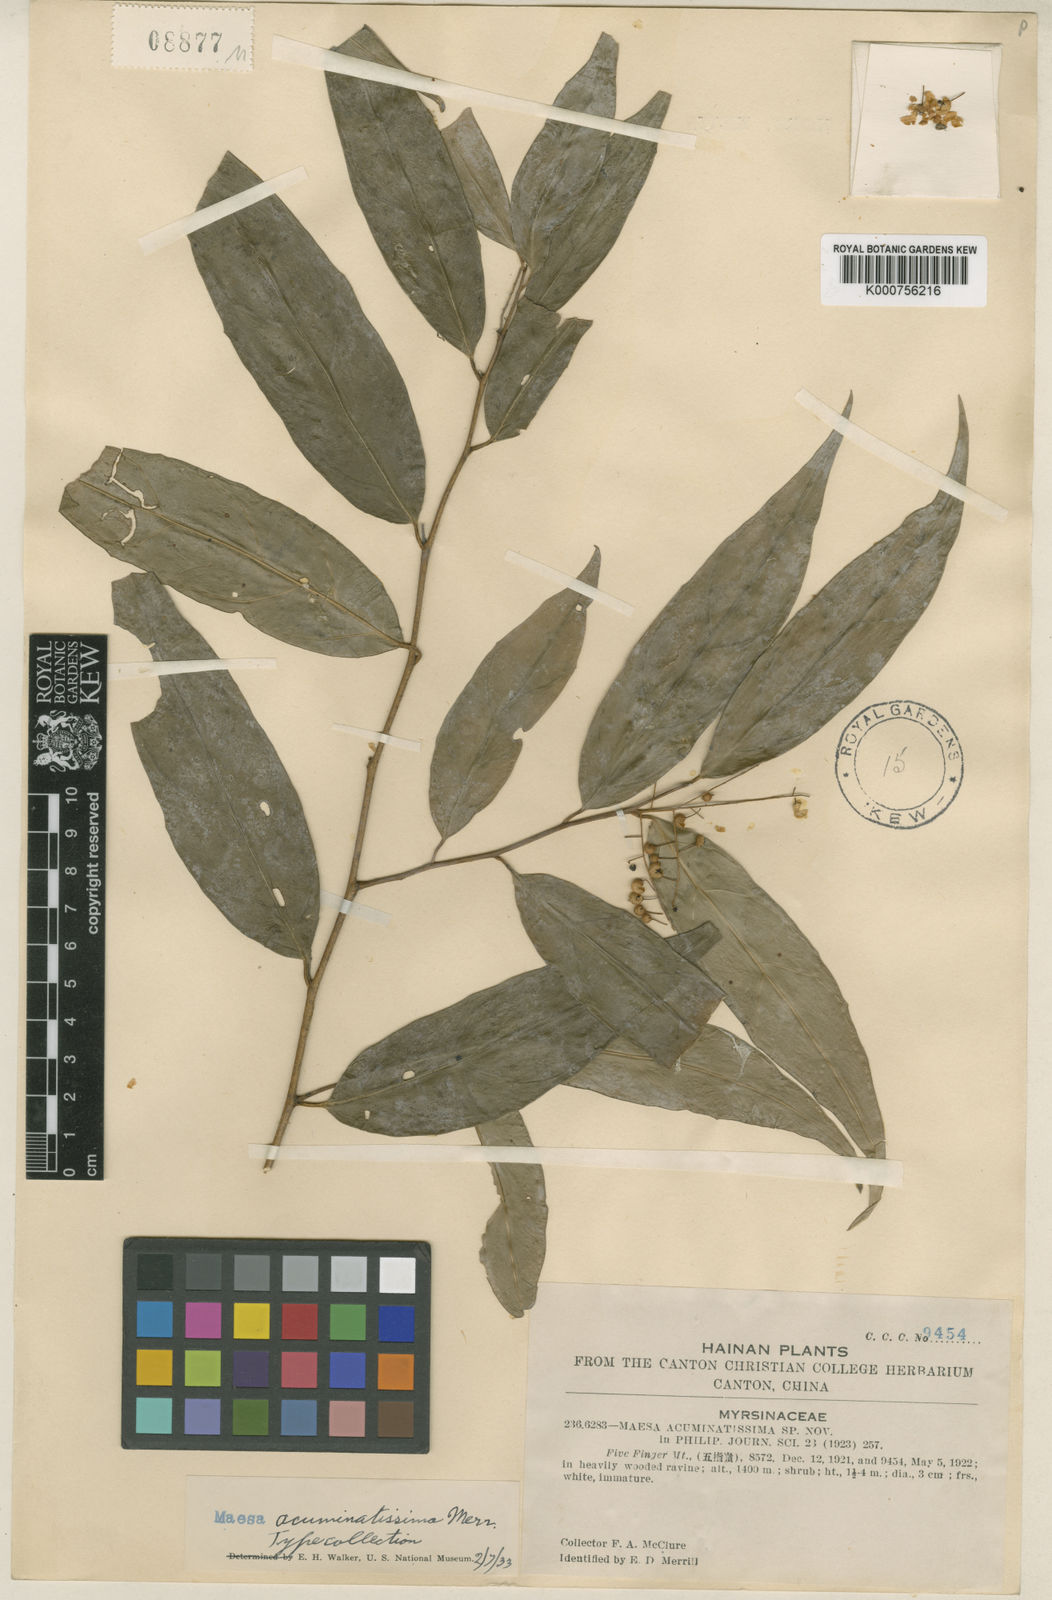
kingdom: Plantae
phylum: Tracheophyta
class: Magnoliopsida
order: Ericales
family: Primulaceae
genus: Maesa
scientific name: Maesa acuminatissima
